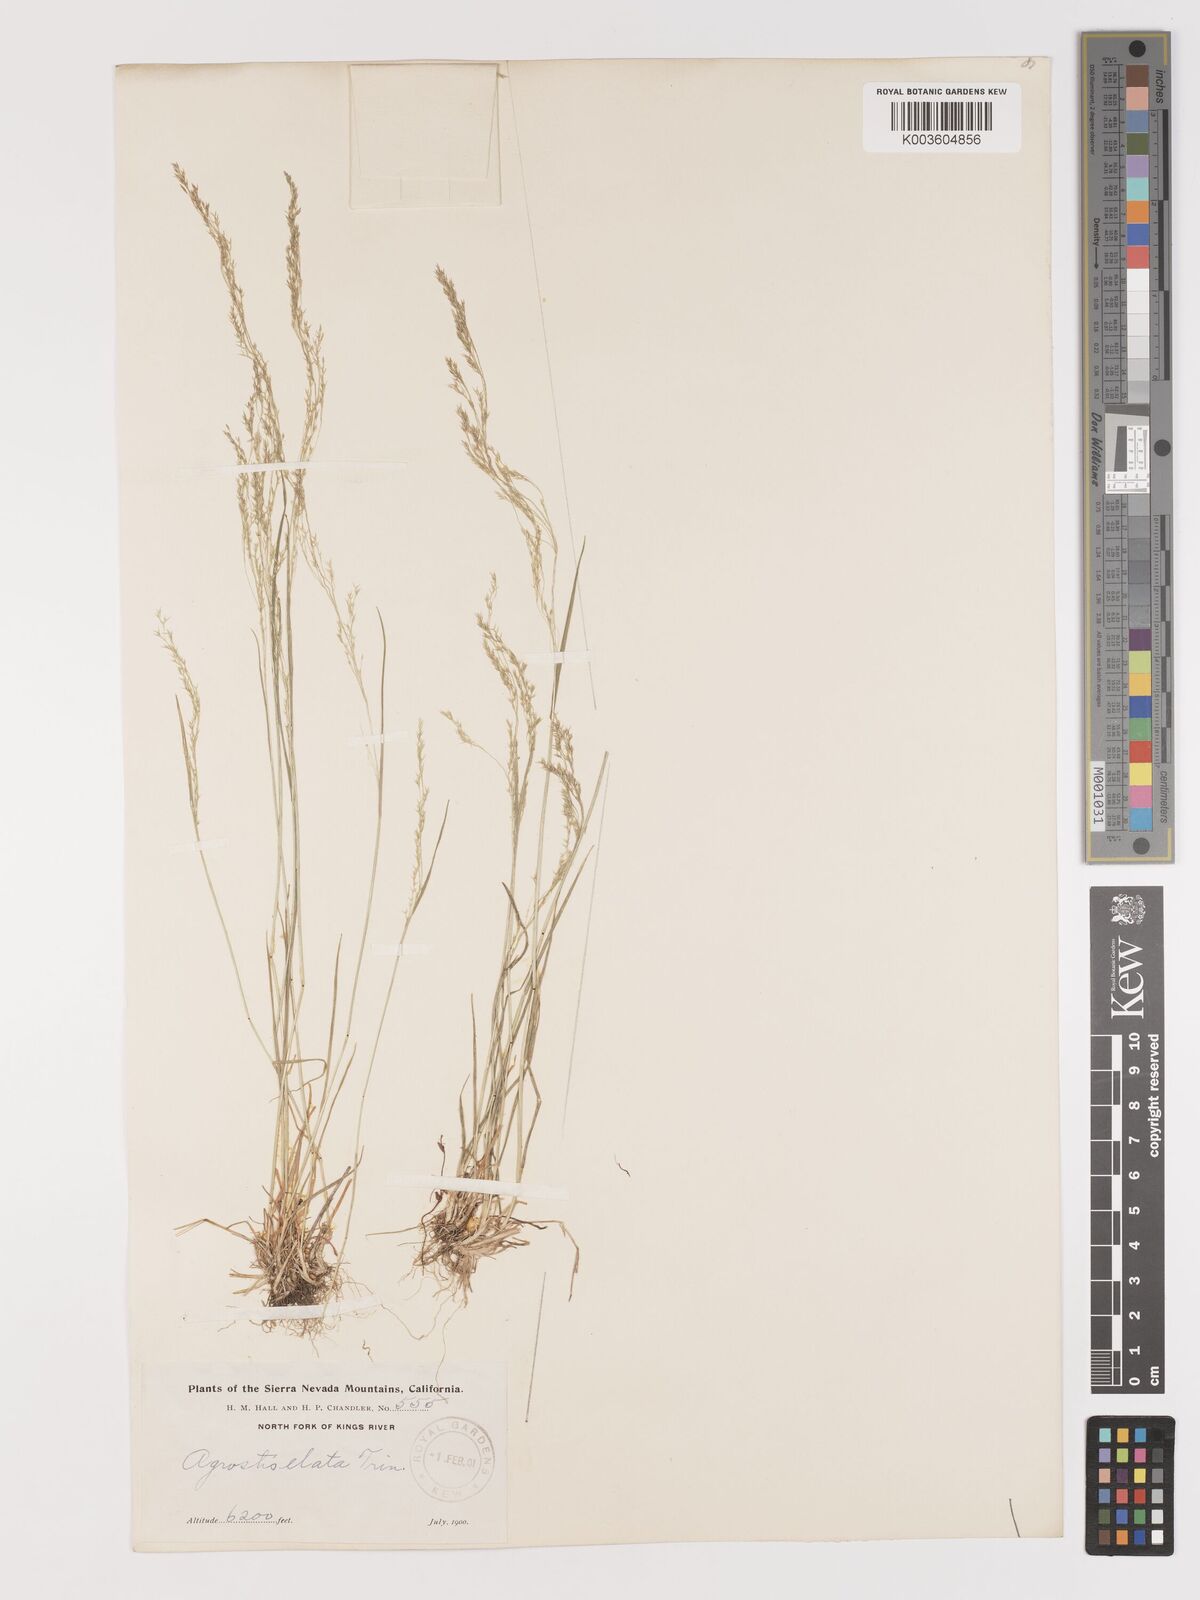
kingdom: Plantae
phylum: Tracheophyta
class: Liliopsida
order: Poales
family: Poaceae
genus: Agrostis
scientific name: Agrostis
